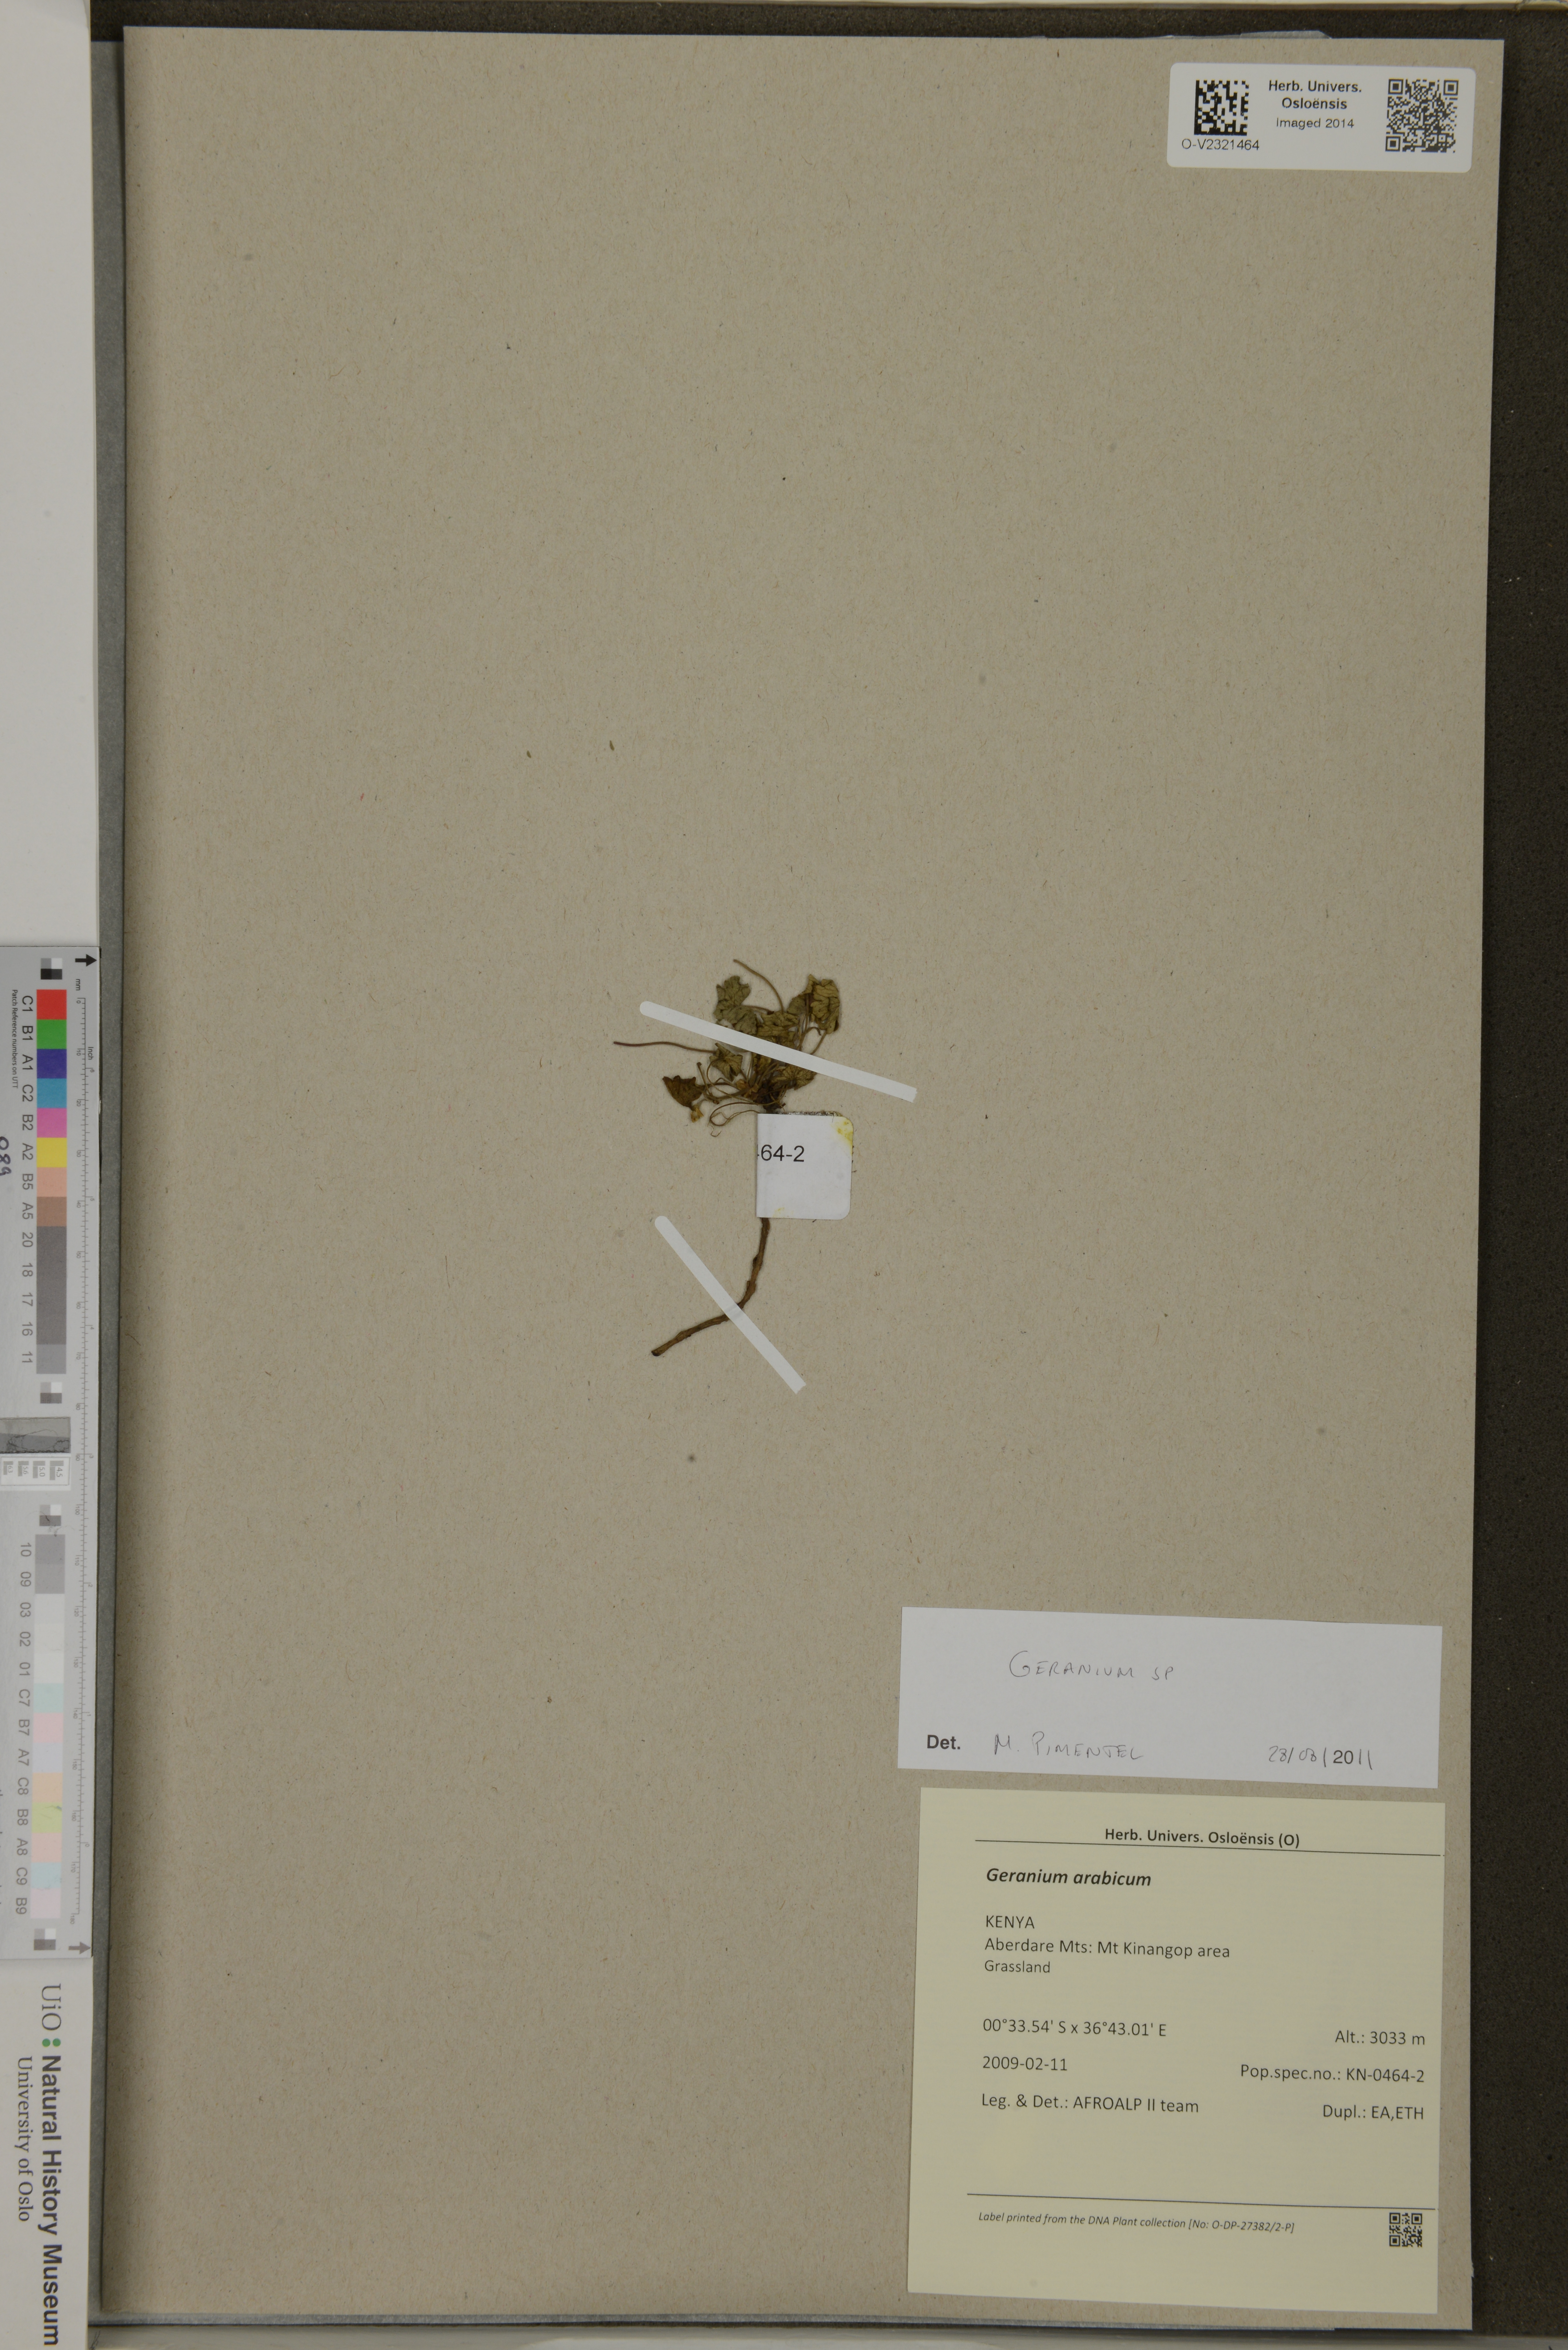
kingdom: Plantae
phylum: Tracheophyta
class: Magnoliopsida
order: Geraniales
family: Geraniaceae
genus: Geranium
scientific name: Geranium
